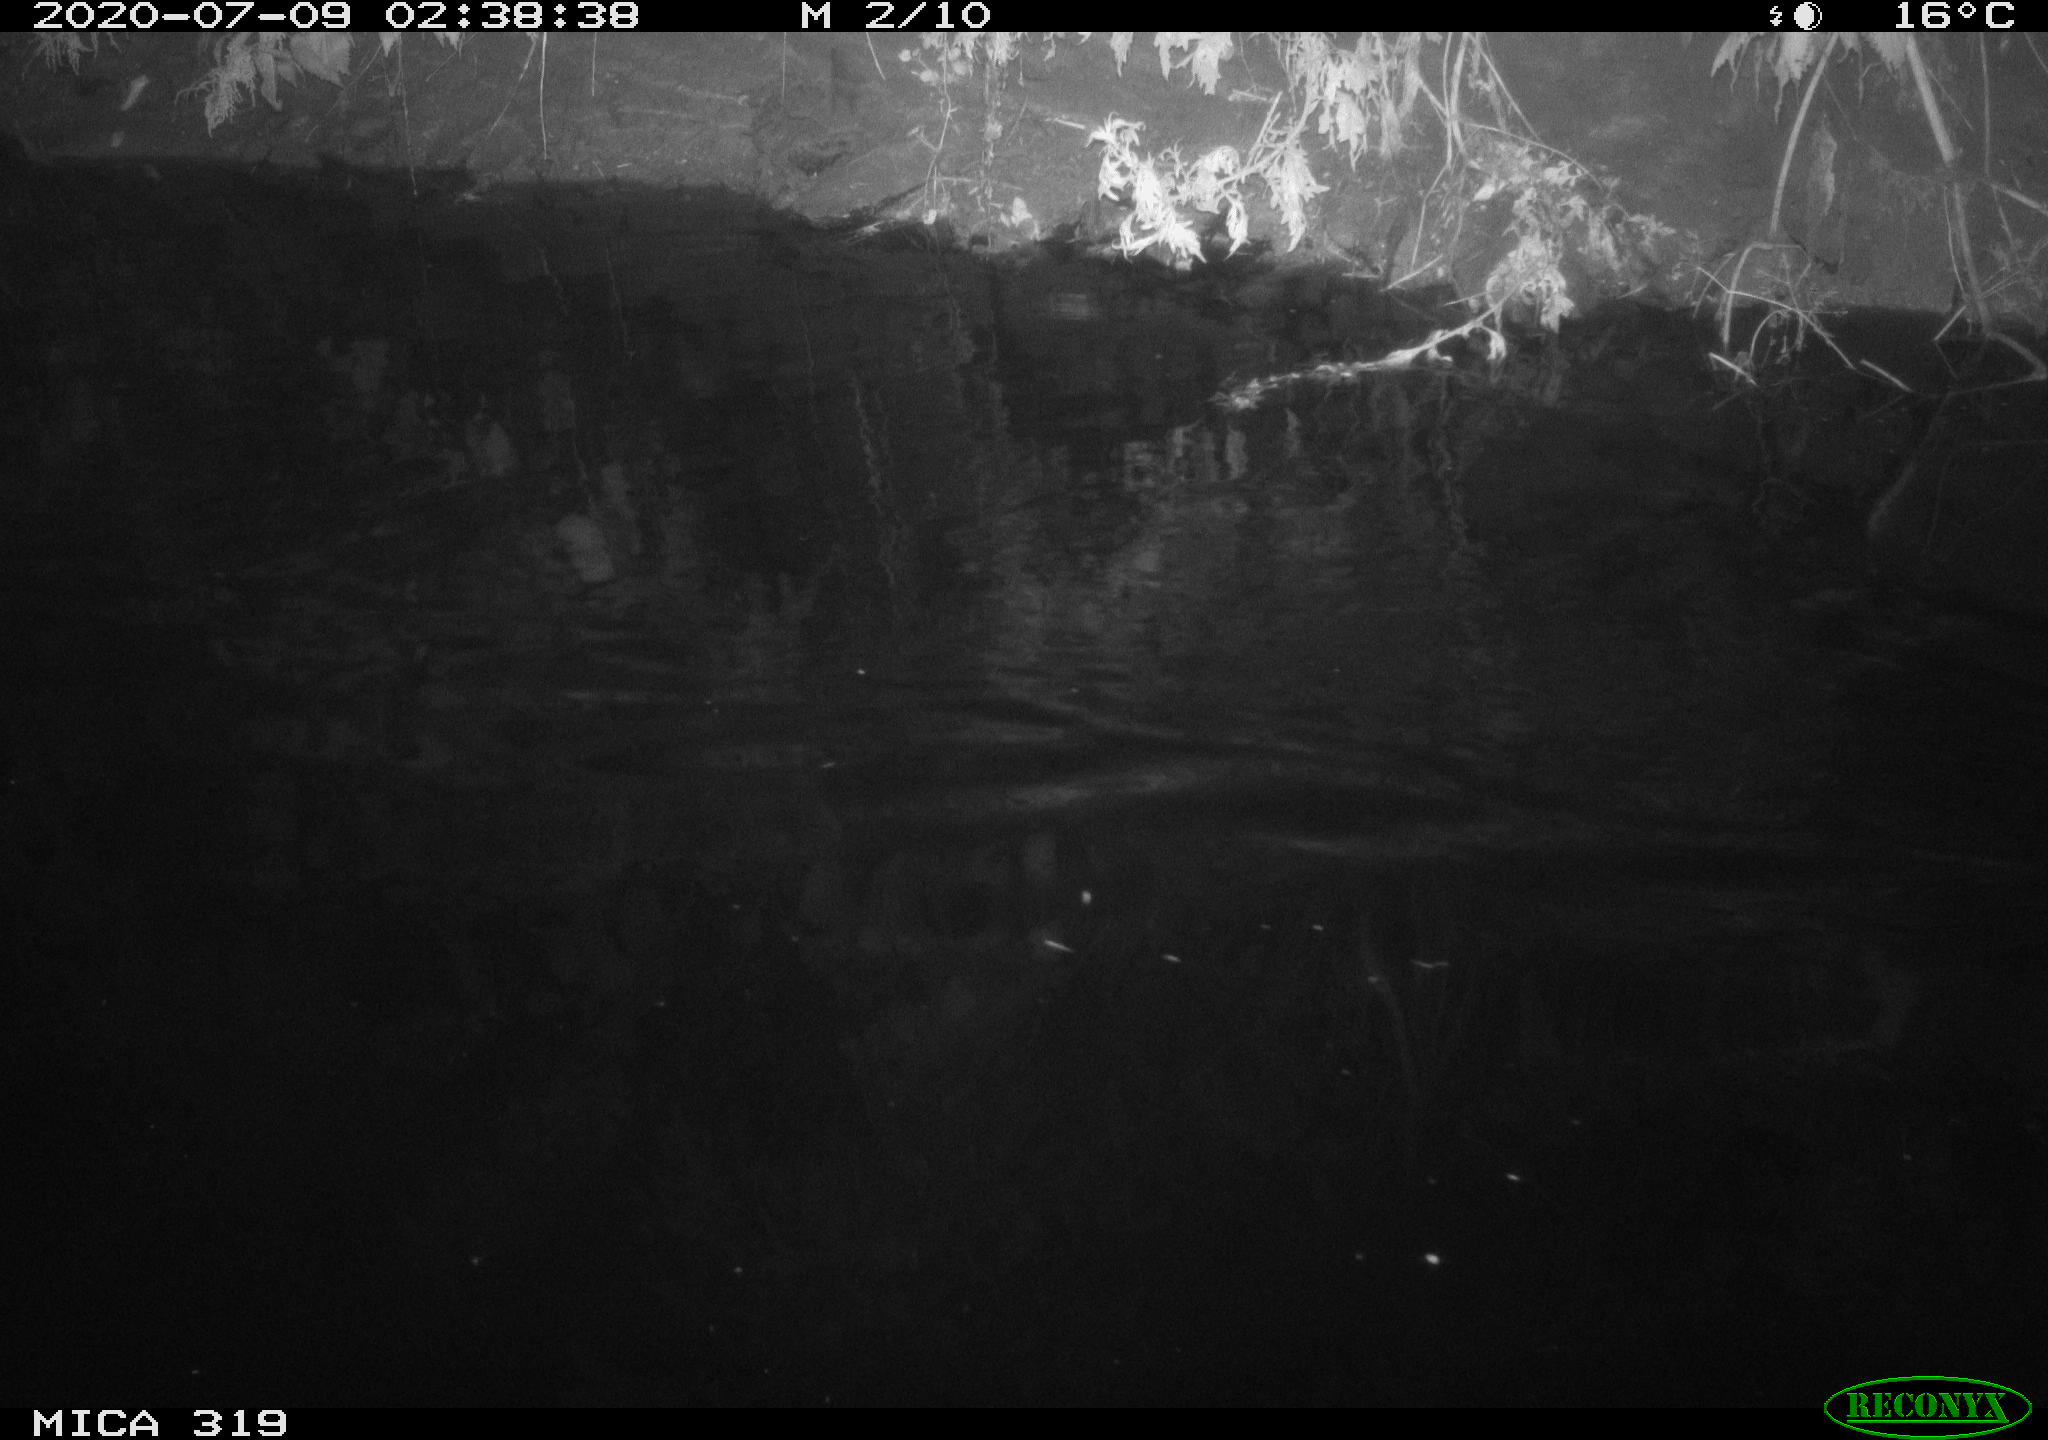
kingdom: Animalia
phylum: Chordata
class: Aves
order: Anseriformes
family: Anatidae
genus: Anas
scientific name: Anas platyrhynchos
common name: Mallard
